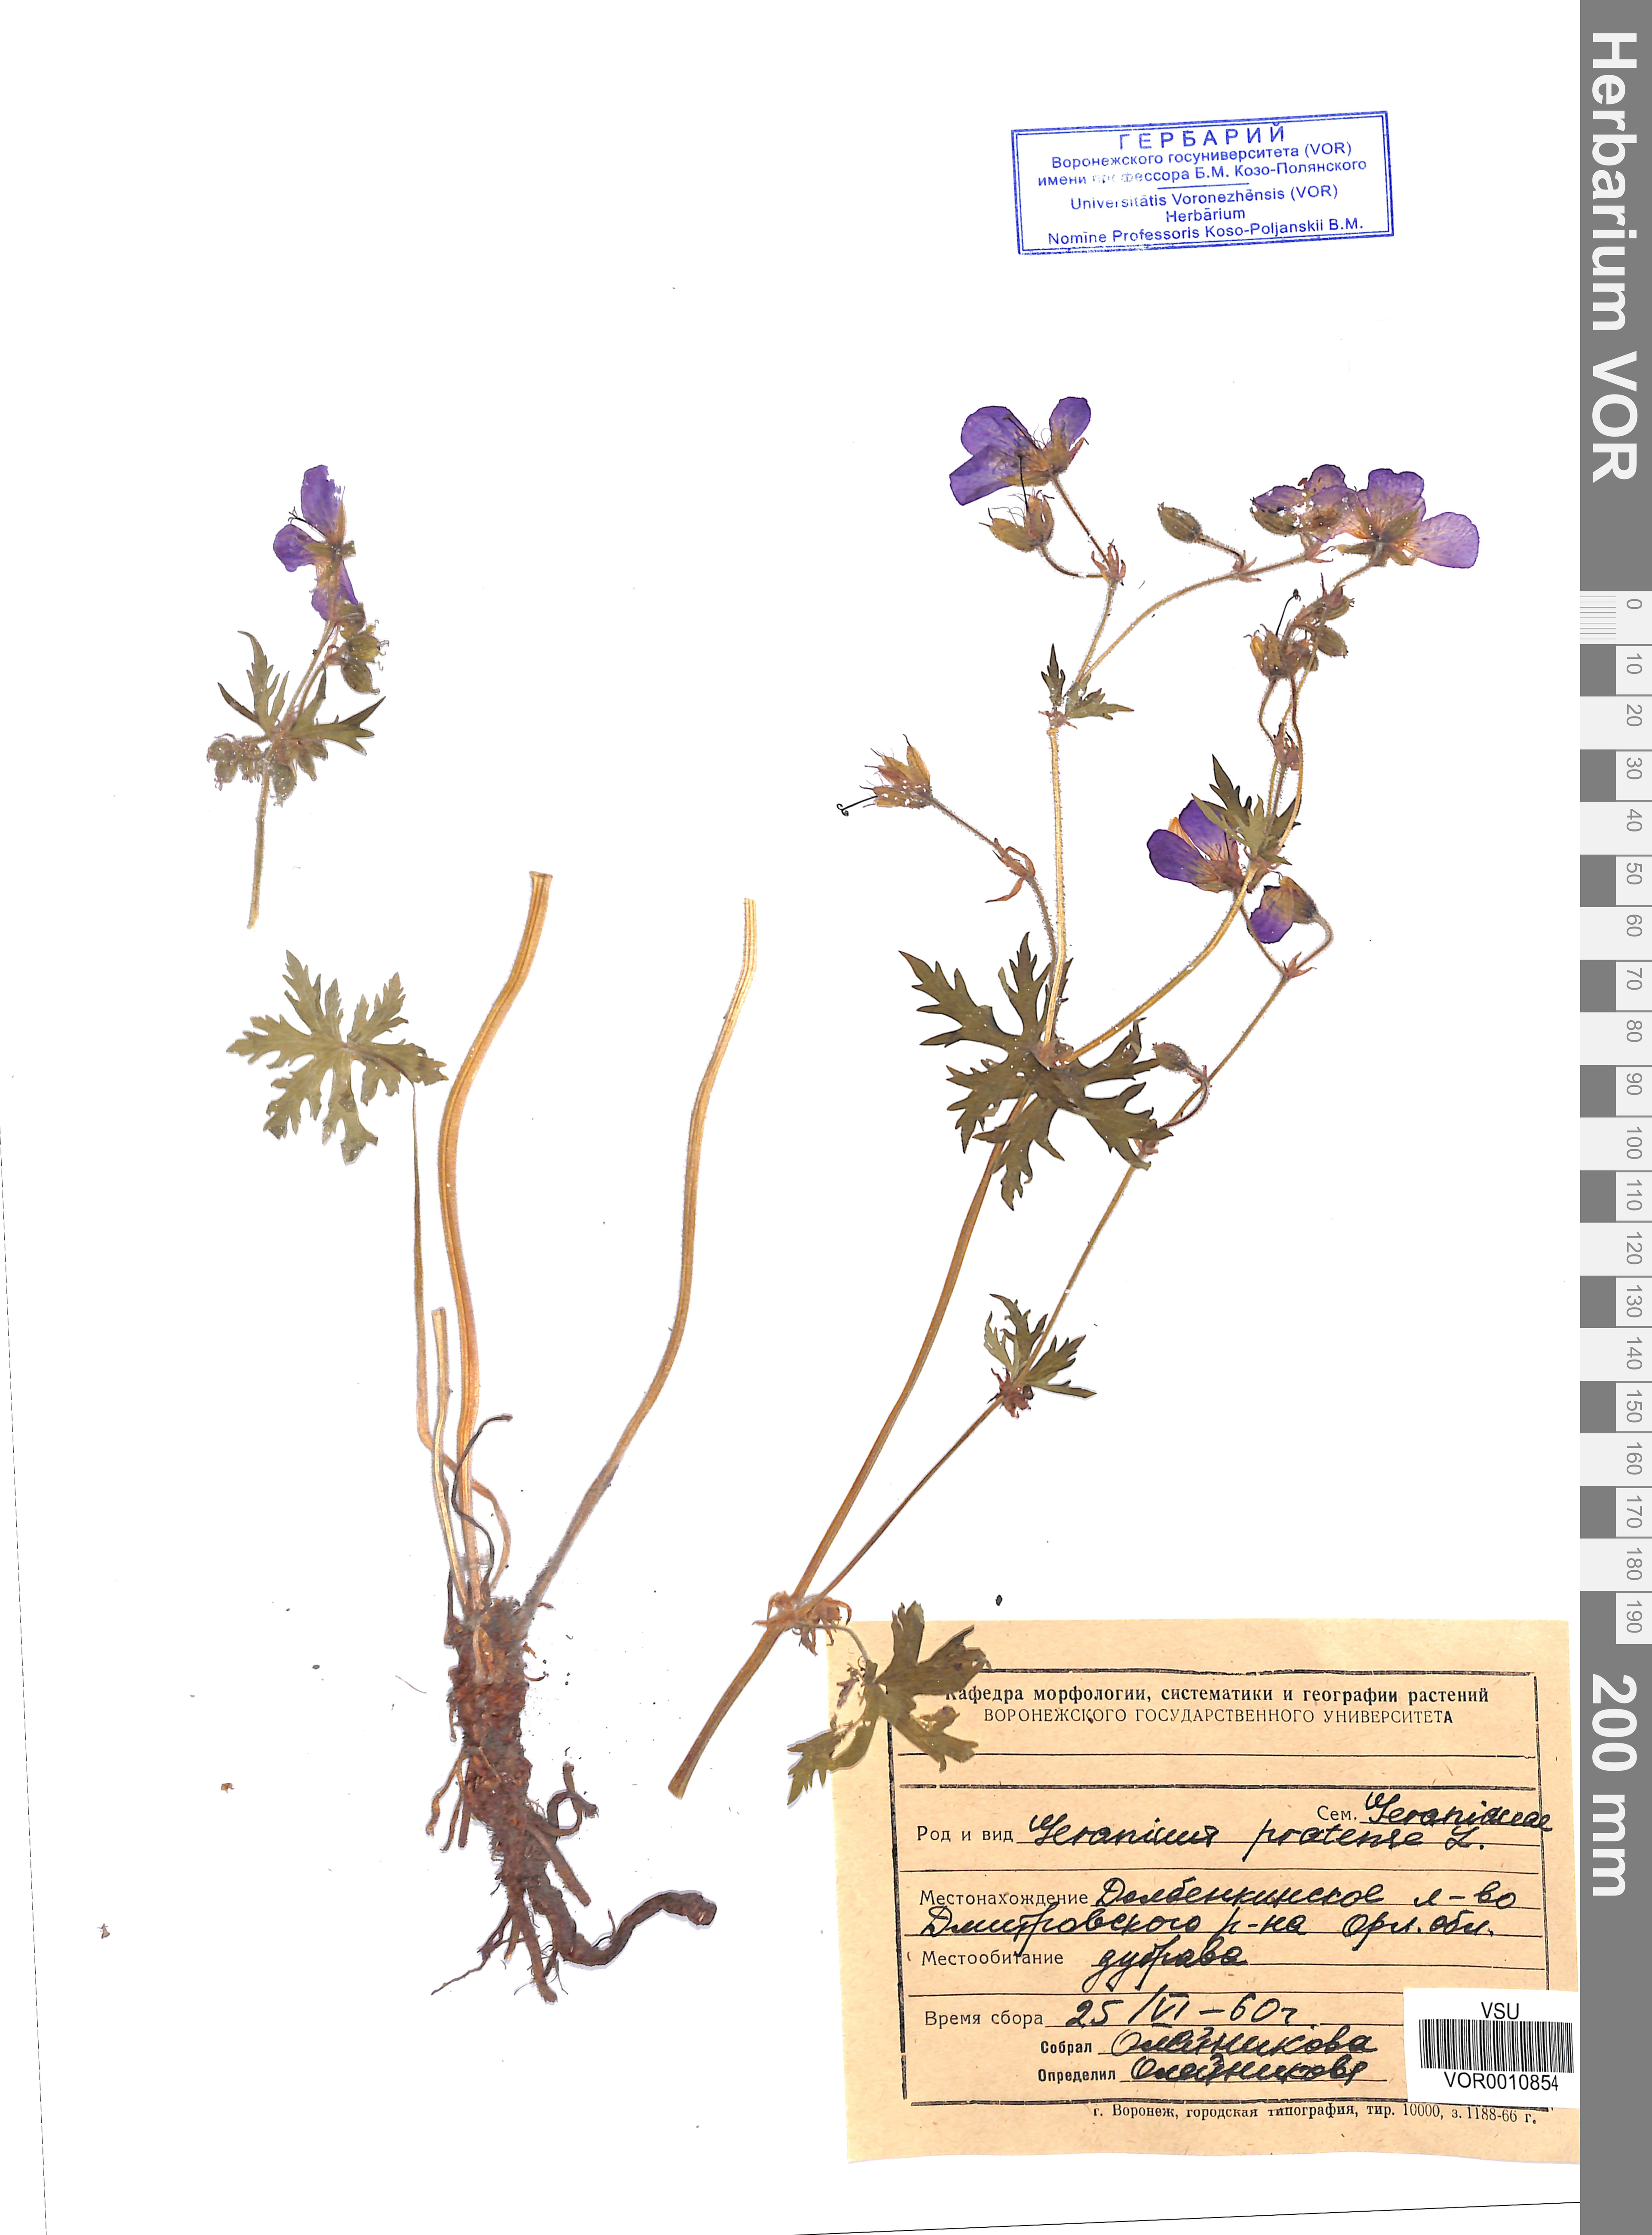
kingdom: Plantae
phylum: Tracheophyta
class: Magnoliopsida
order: Geraniales
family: Geraniaceae
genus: Geranium
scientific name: Geranium pratense
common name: Meadow crane's-bill
